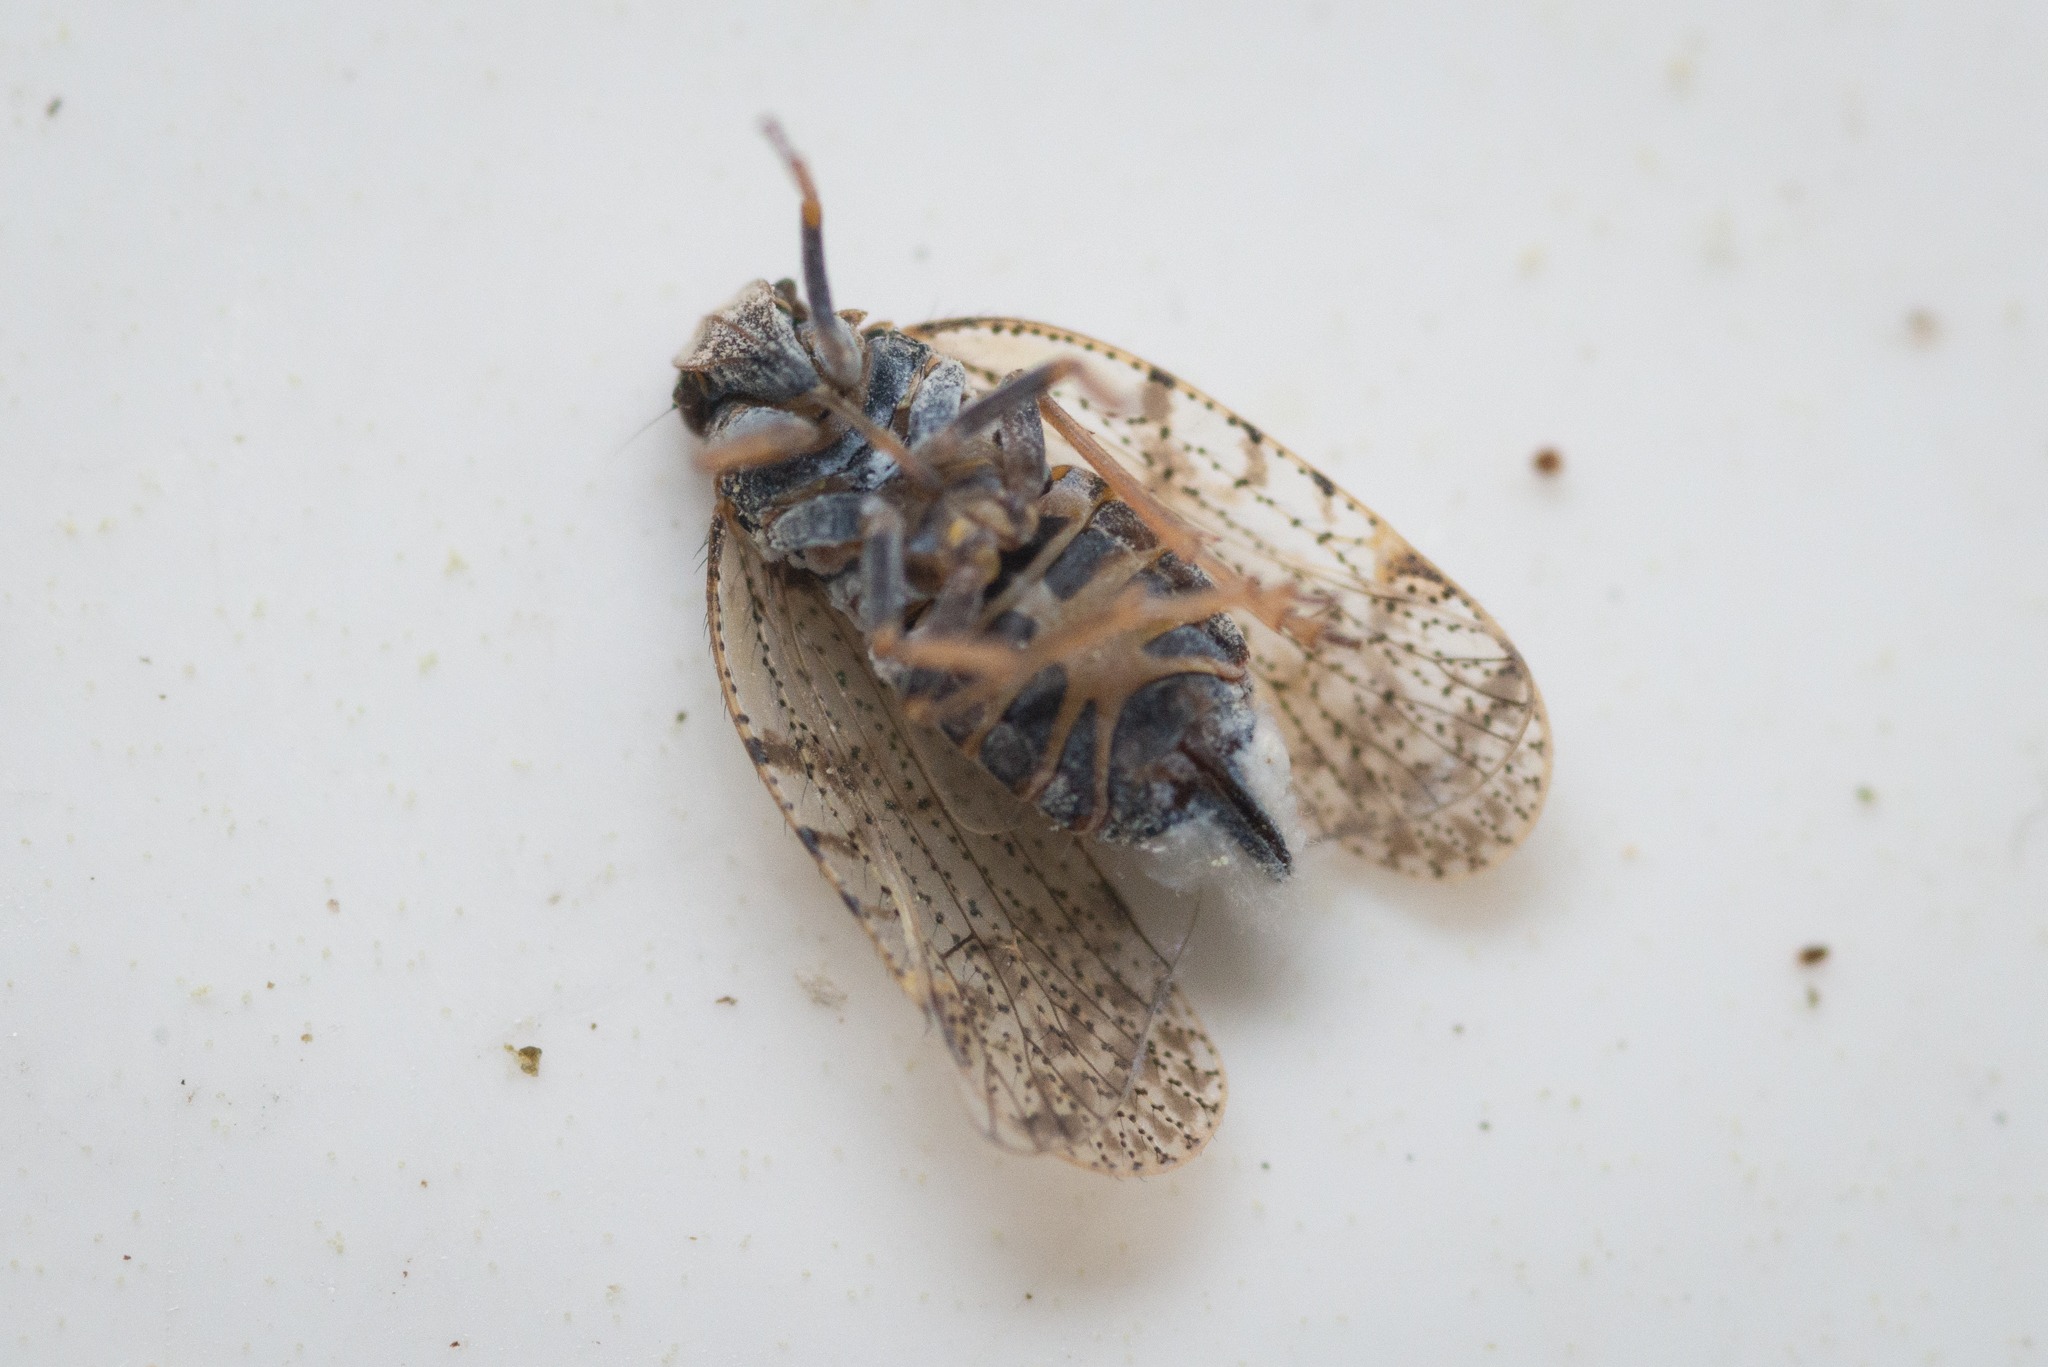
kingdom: Animalia
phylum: Arthropoda
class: Insecta
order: Hemiptera
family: Cixiidae
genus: Tachycixius
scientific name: Tachycixius pilosus
